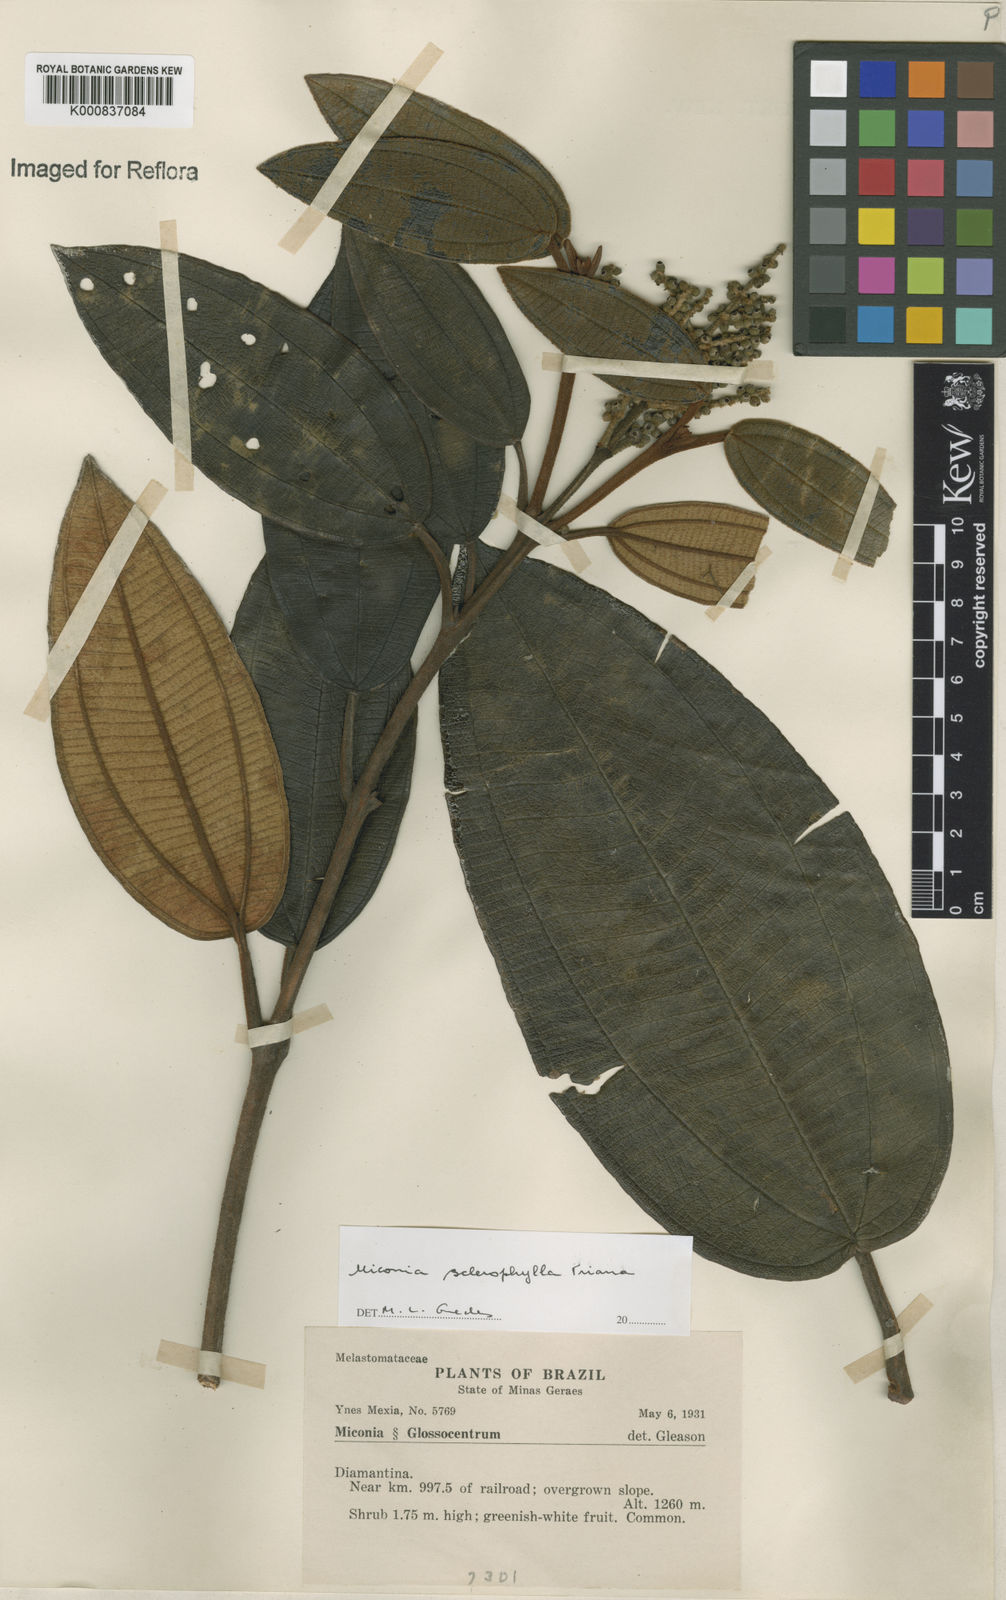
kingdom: Plantae
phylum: Tracheophyta
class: Magnoliopsida
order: Myrtales
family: Melastomataceae
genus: Miconia
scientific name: Miconia sclerophylla
